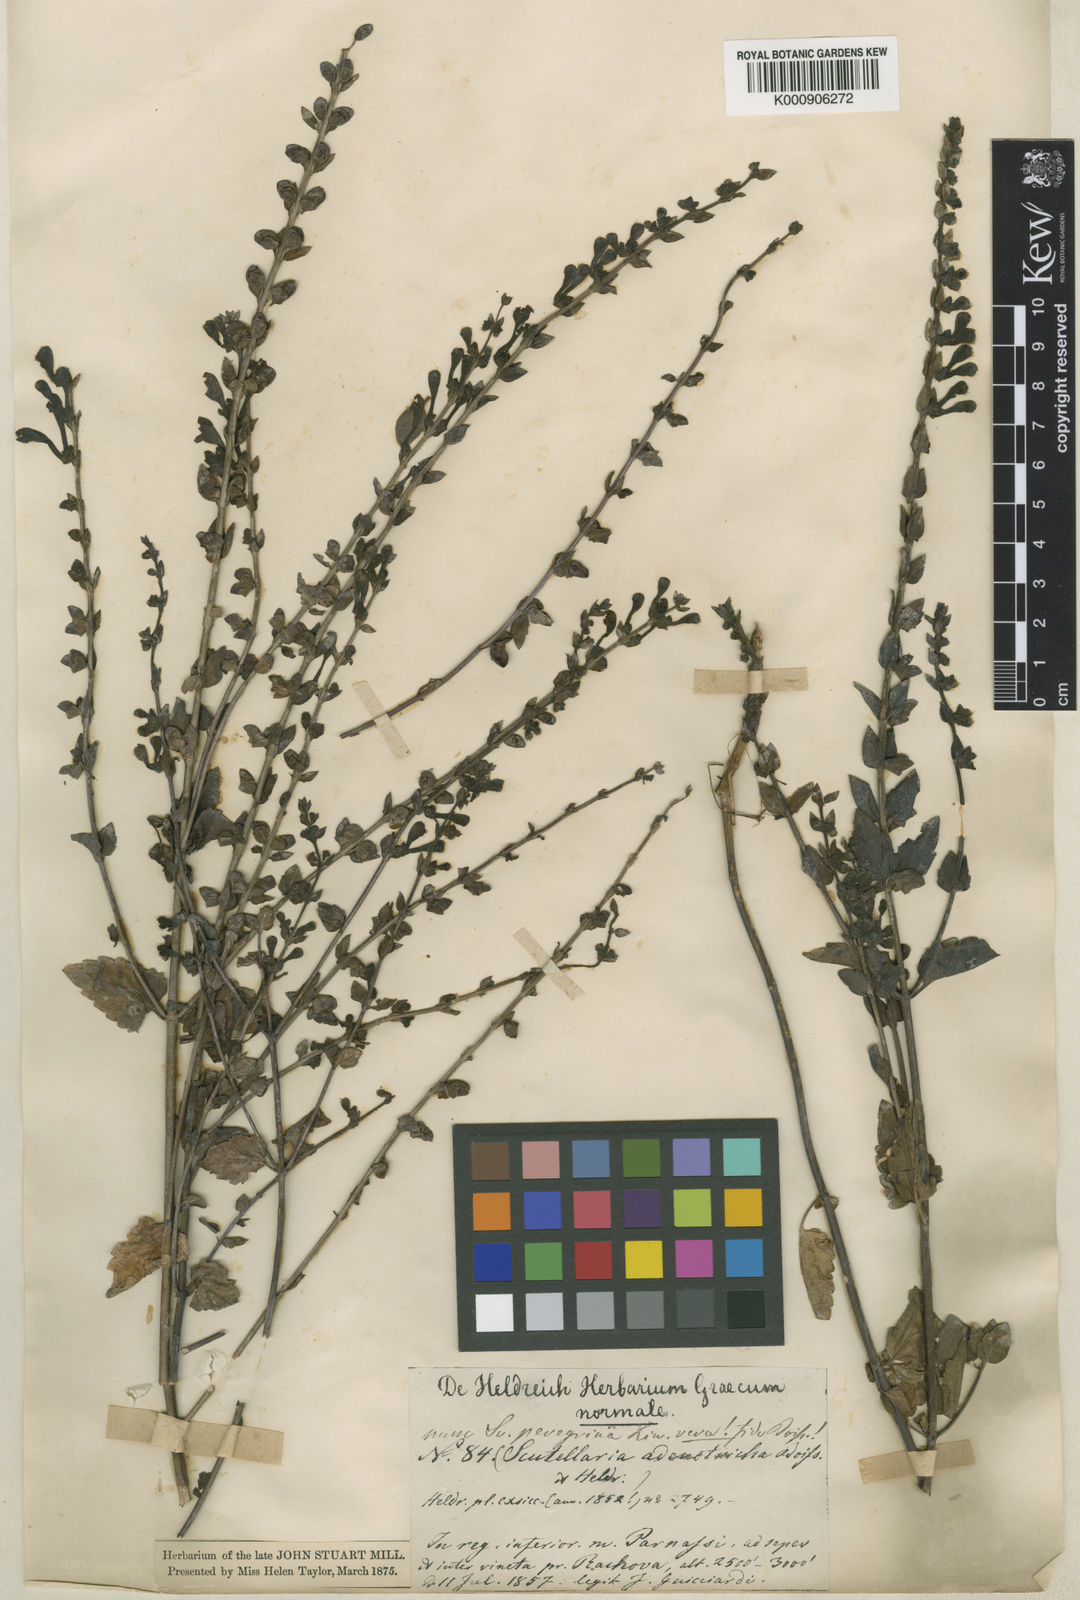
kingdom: Plantae
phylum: Tracheophyta
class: Magnoliopsida
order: Lamiales
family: Lamiaceae
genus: Scutellaria
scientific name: Scutellaria rubicunda
